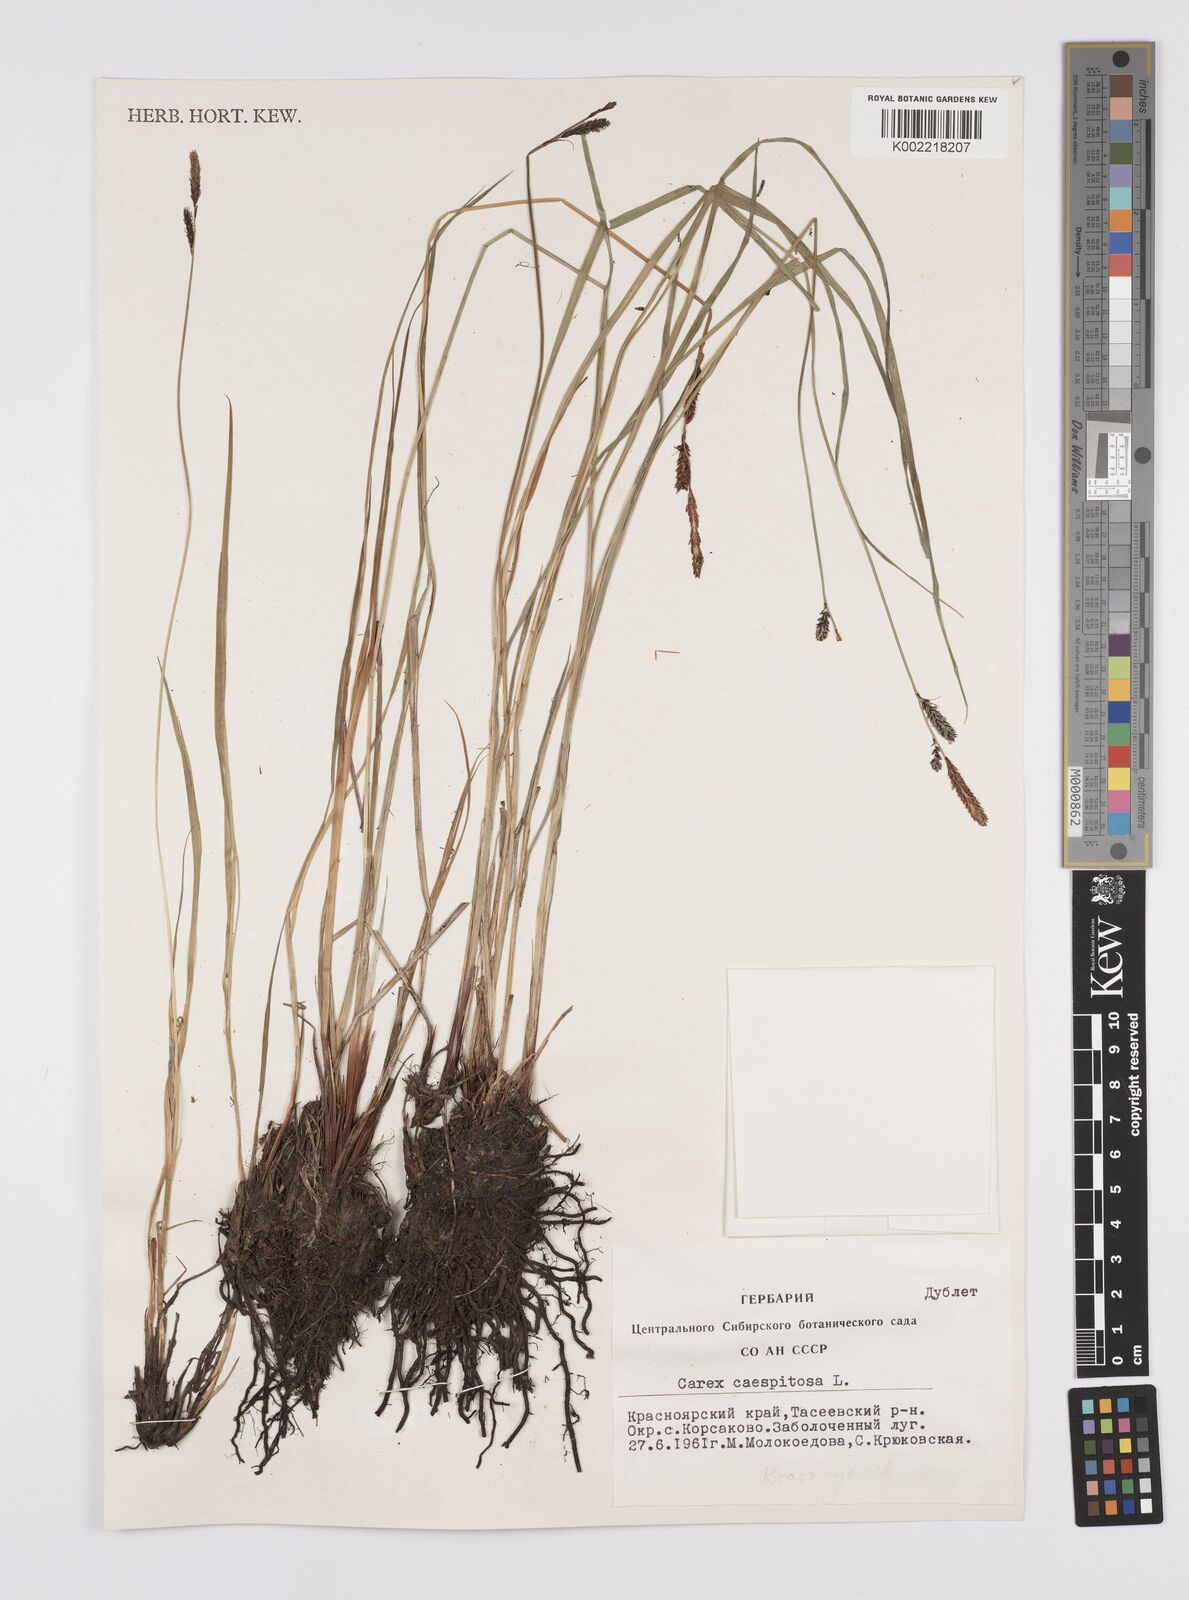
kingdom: Plantae
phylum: Tracheophyta
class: Liliopsida
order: Poales
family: Cyperaceae
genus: Carex
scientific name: Carex
